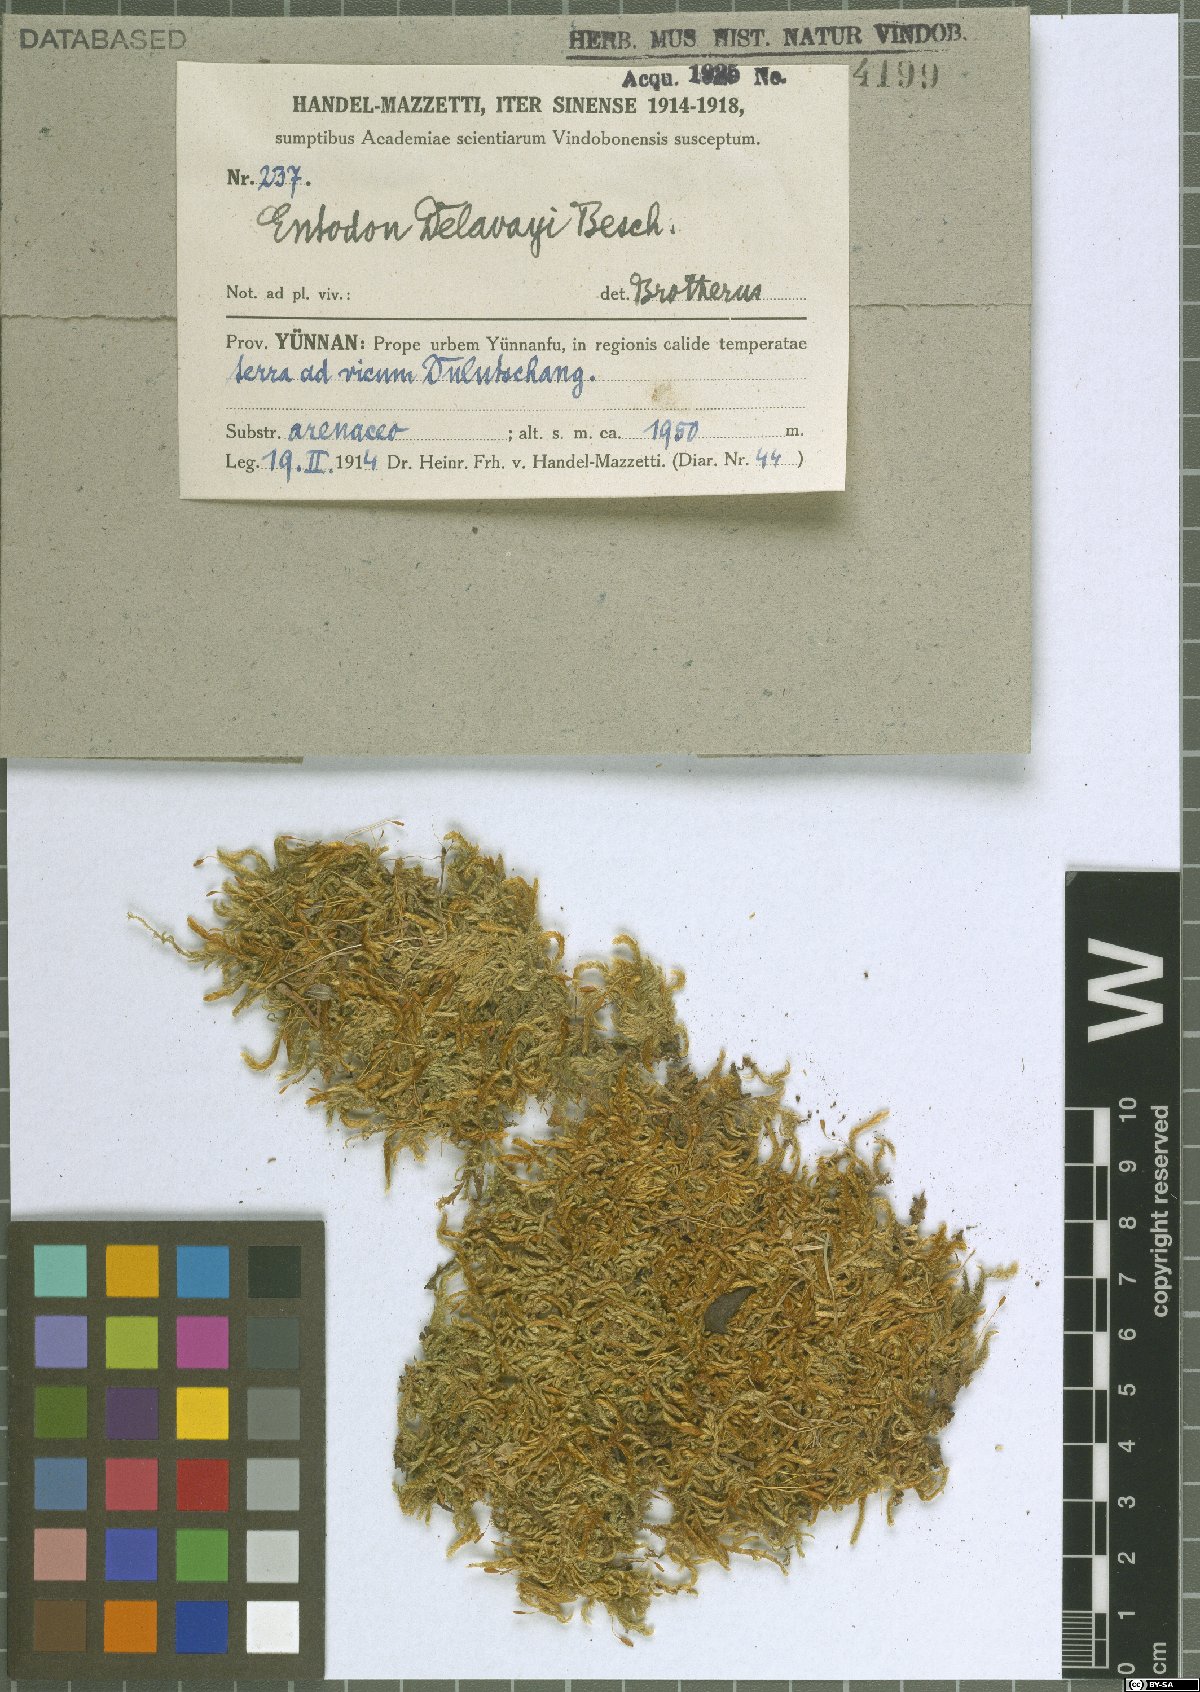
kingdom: Plantae
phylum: Bryophyta
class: Bryopsida
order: Hypnales
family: Entodontaceae
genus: Entodon
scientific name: Entodon macropodus
